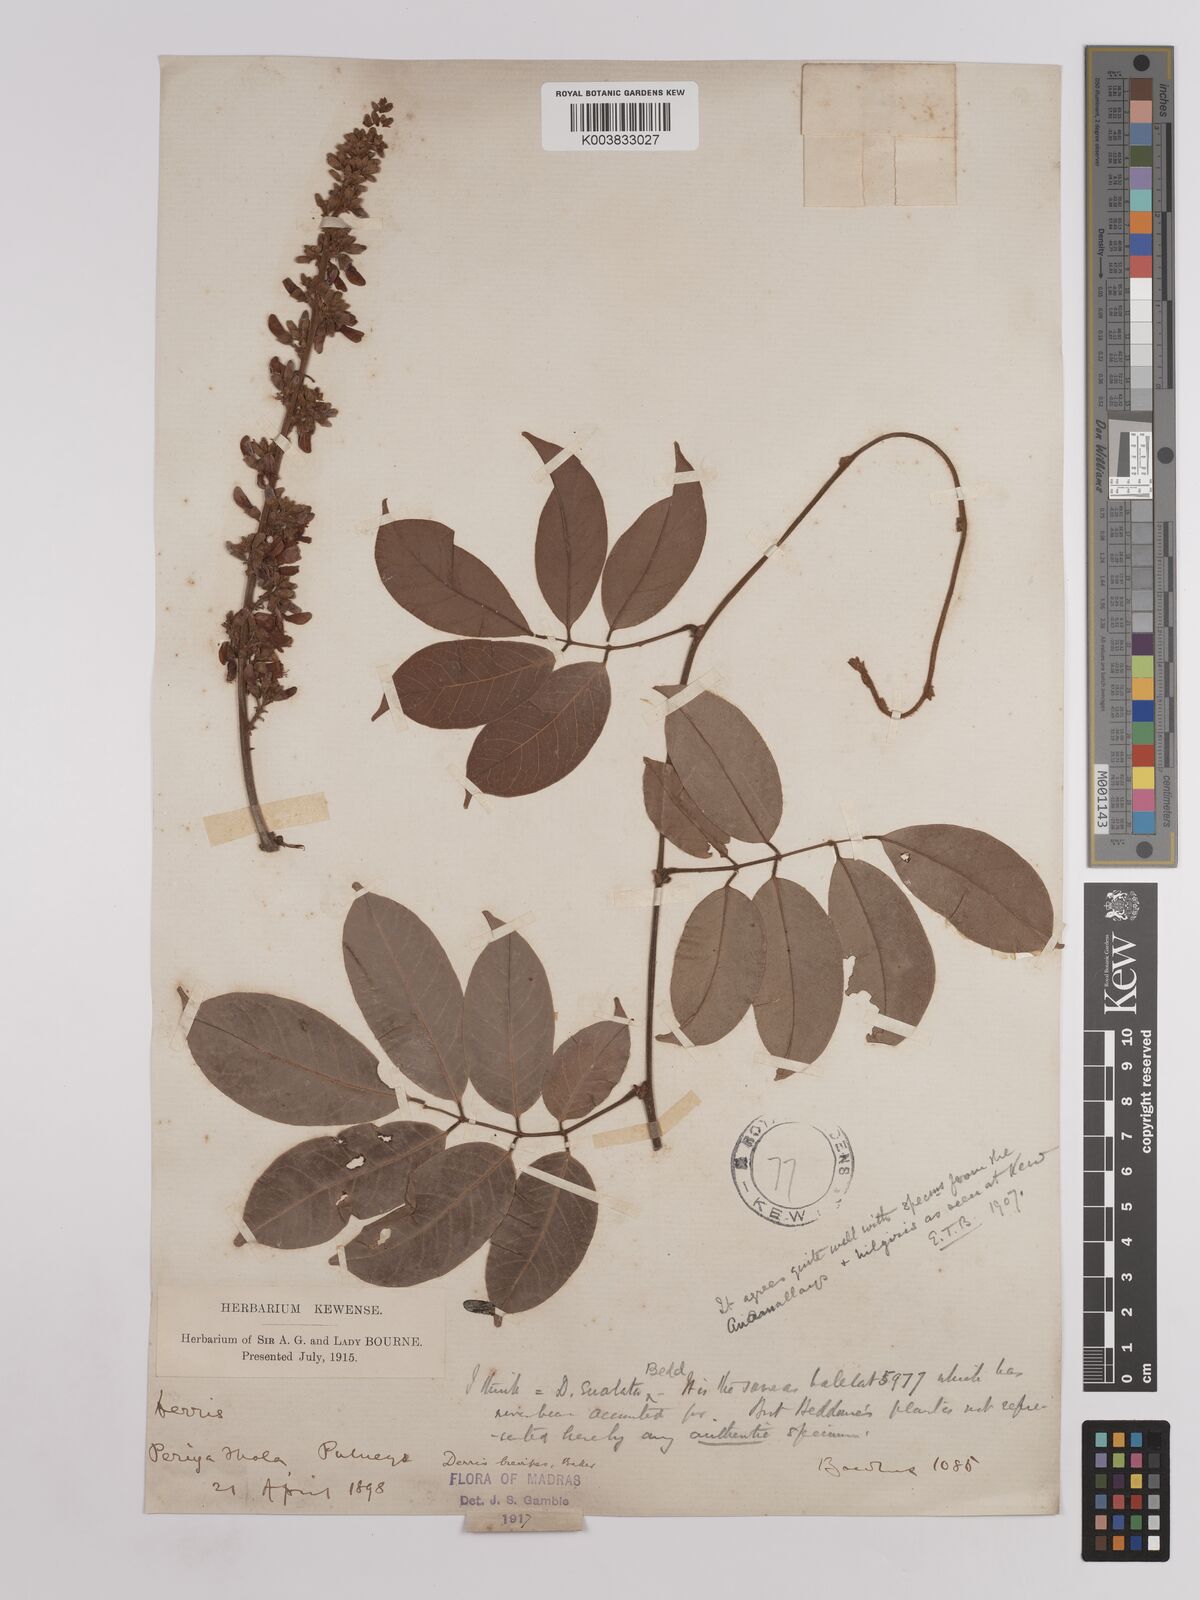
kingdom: Plantae
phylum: Tracheophyta
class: Magnoliopsida
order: Fabales
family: Fabaceae
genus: Derris
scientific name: Derris brevipes
